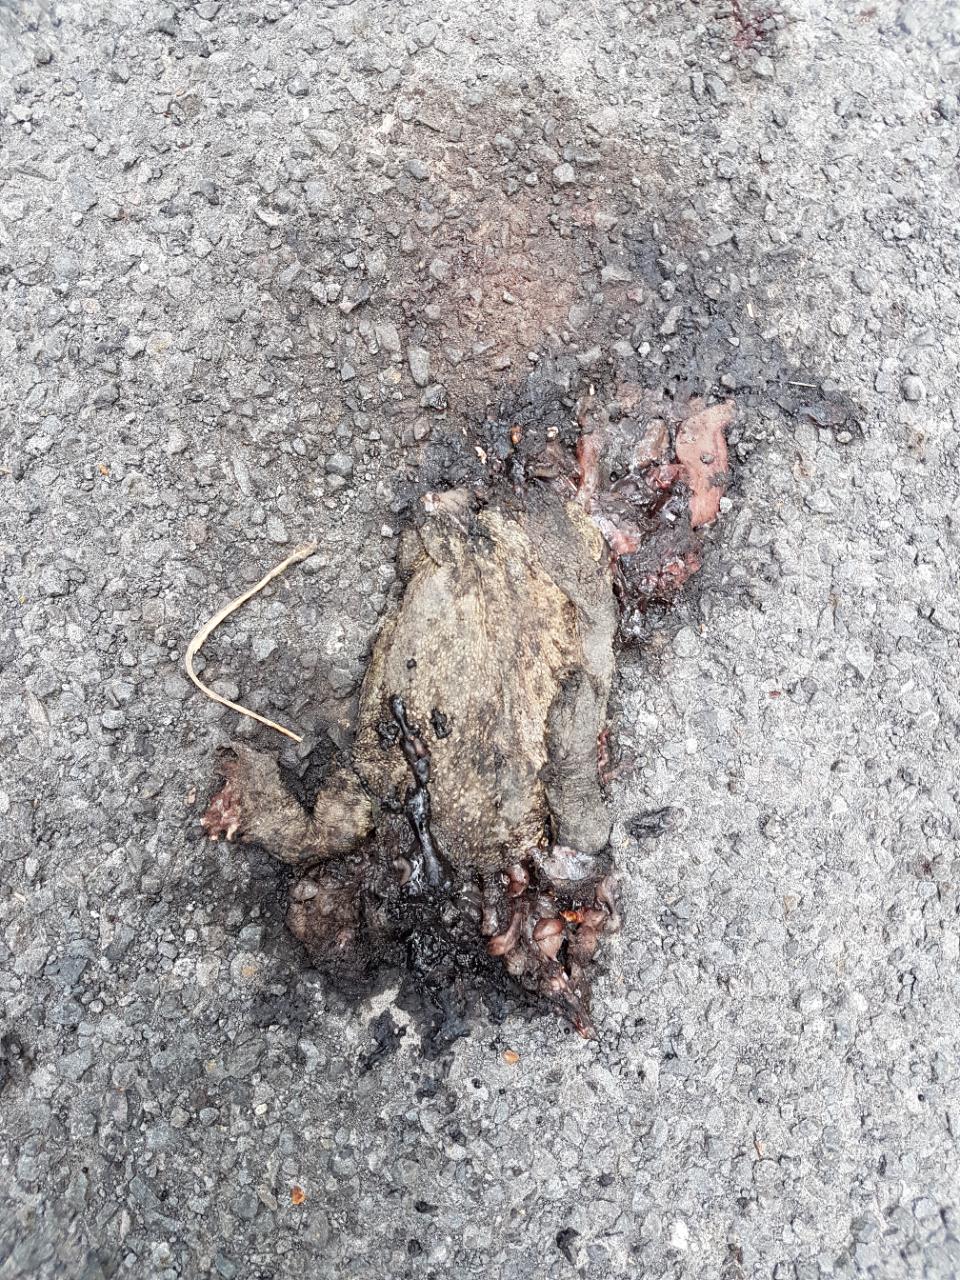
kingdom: Animalia
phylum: Chordata
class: Amphibia
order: Anura
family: Bufonidae
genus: Bufo
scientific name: Bufo bufo
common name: Common toad
